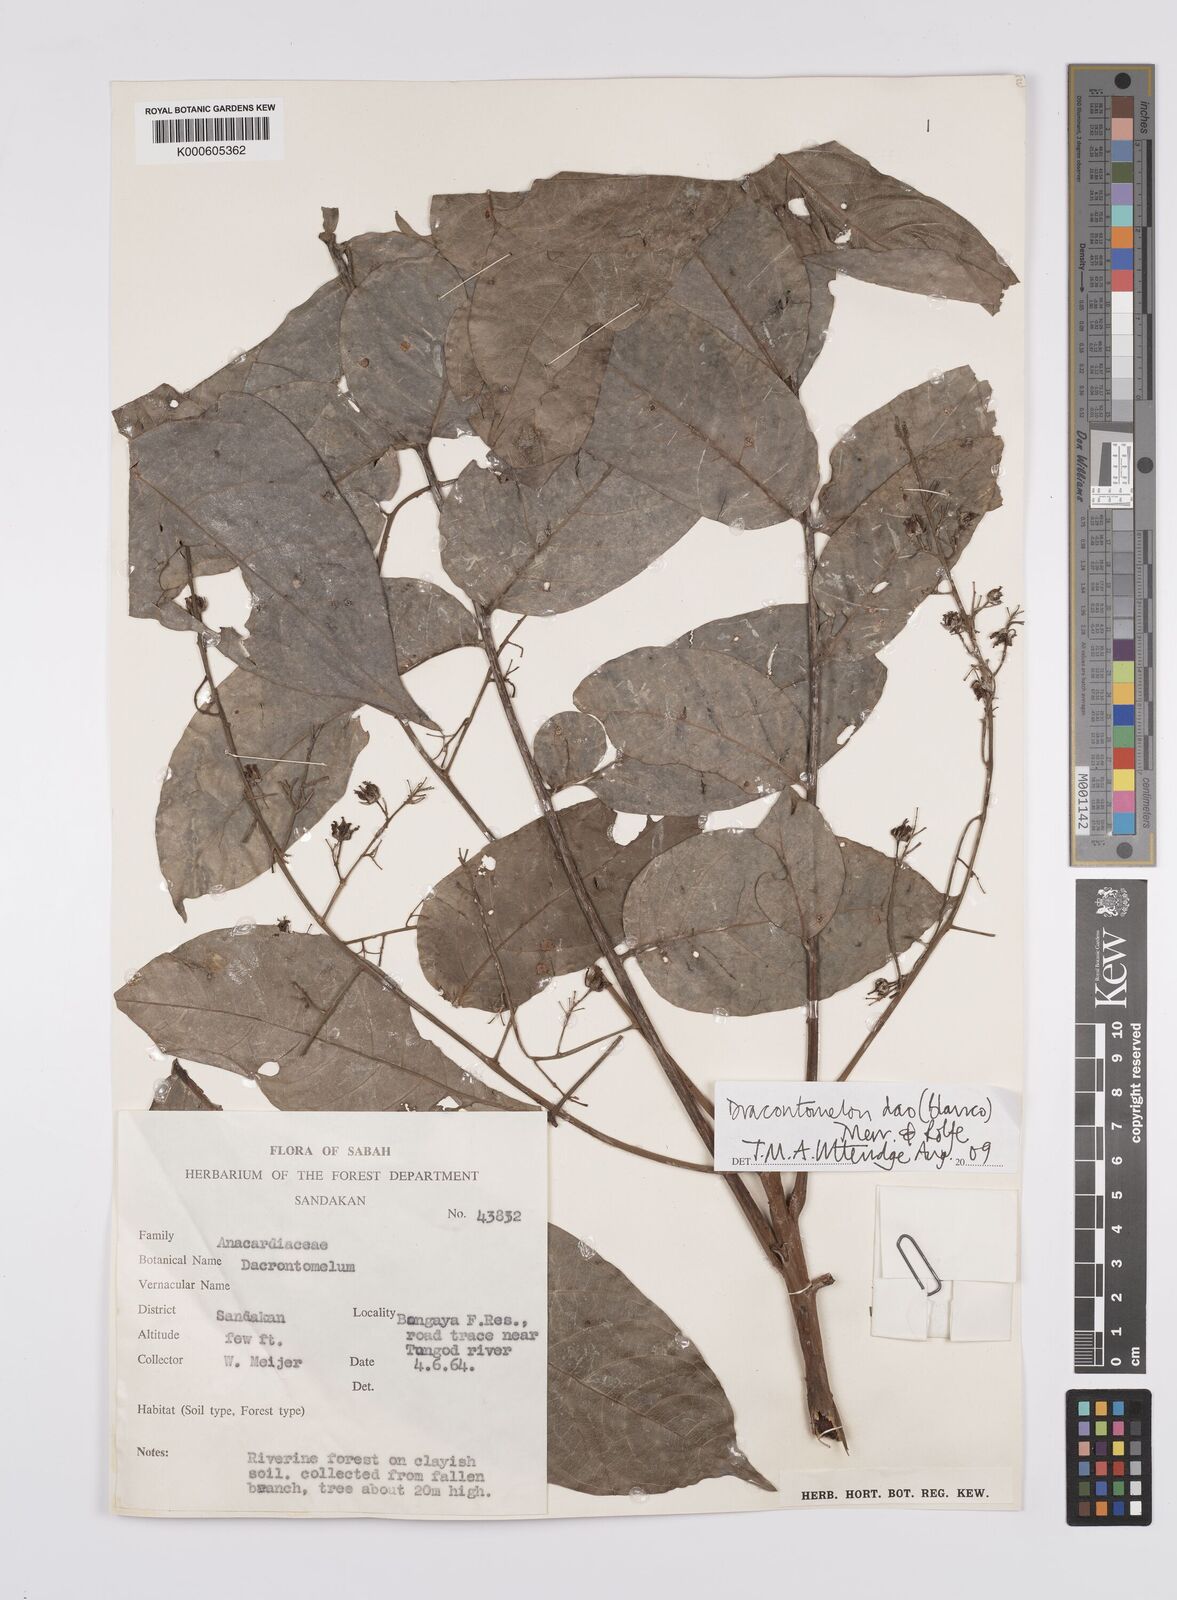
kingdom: Plantae
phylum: Tracheophyta
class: Magnoliopsida
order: Sapindales
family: Anacardiaceae
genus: Dracontomelon
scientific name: Dracontomelon dao
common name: Argus pheasant-tree
